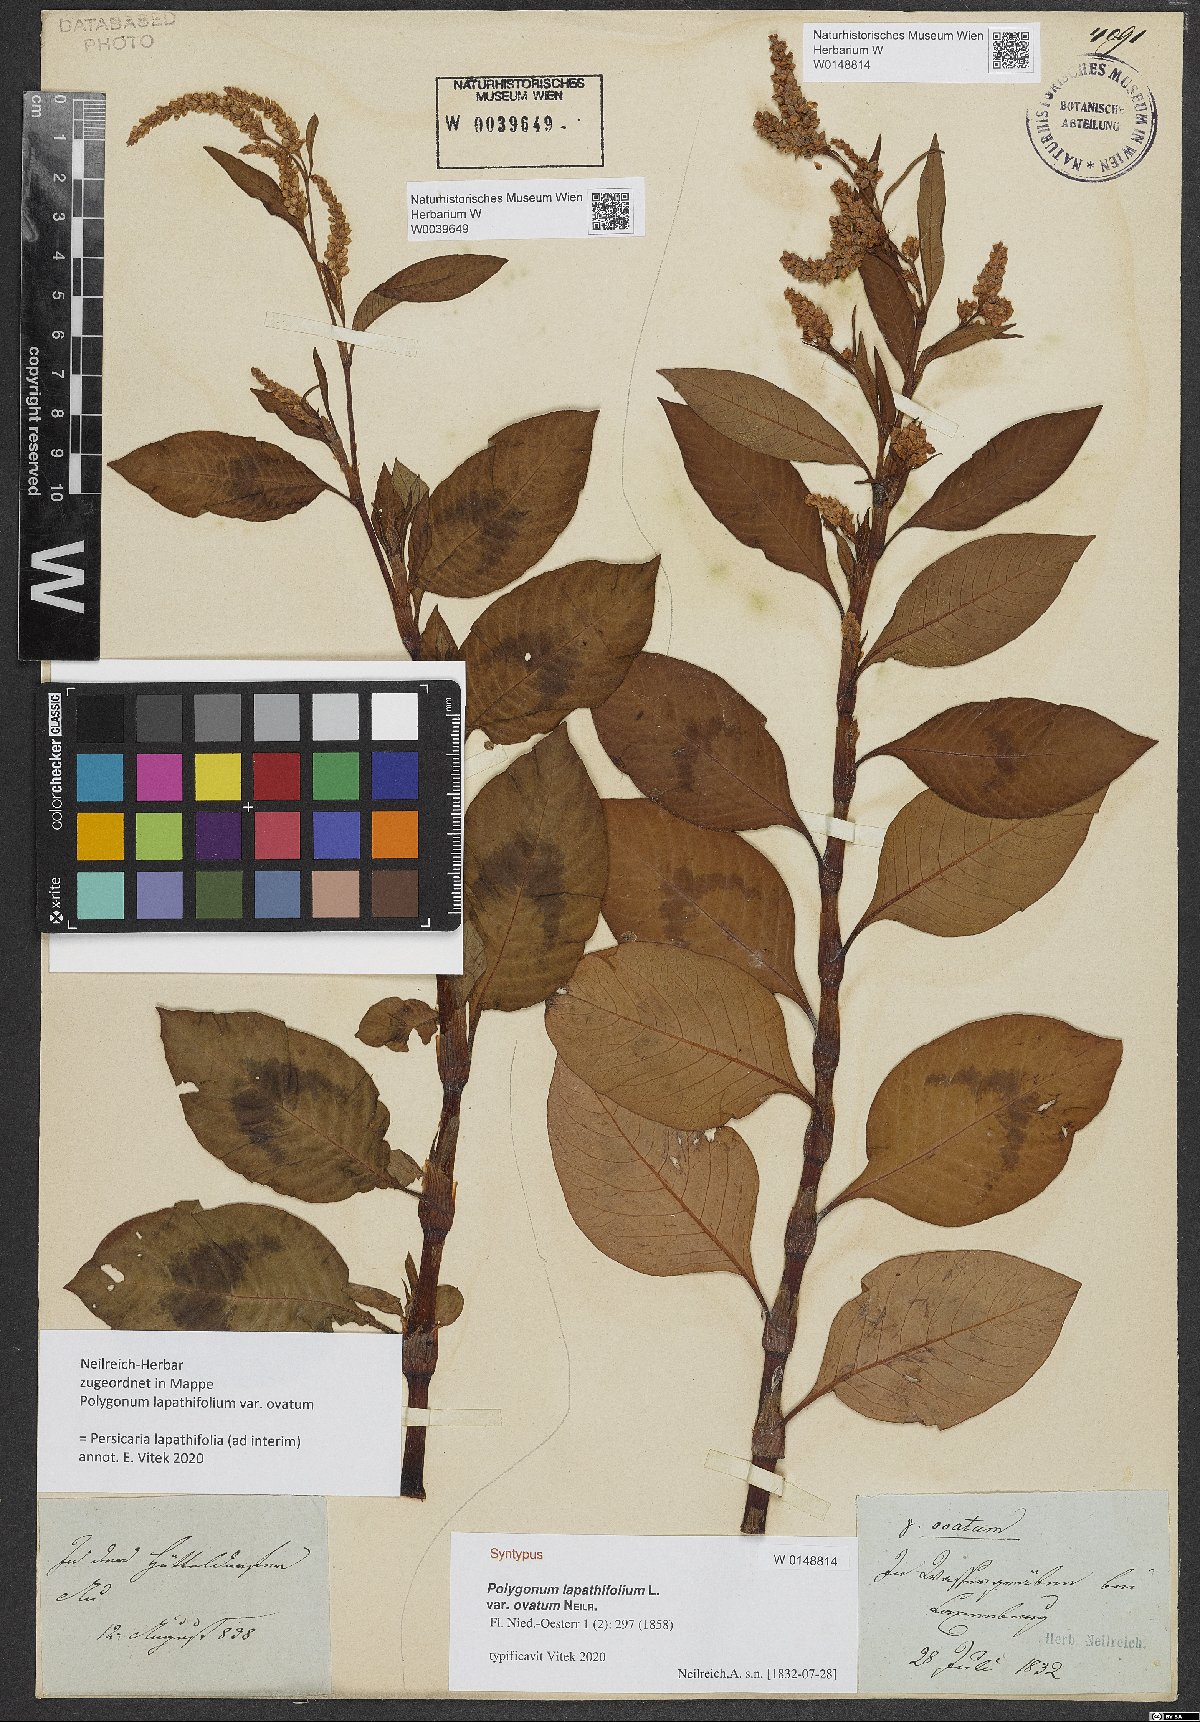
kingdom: Plantae
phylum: Tracheophyta
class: Magnoliopsida
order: Caryophyllales
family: Polygonaceae
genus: Persicaria
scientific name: Persicaria lapathifolia
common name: Curlytop knotweed
